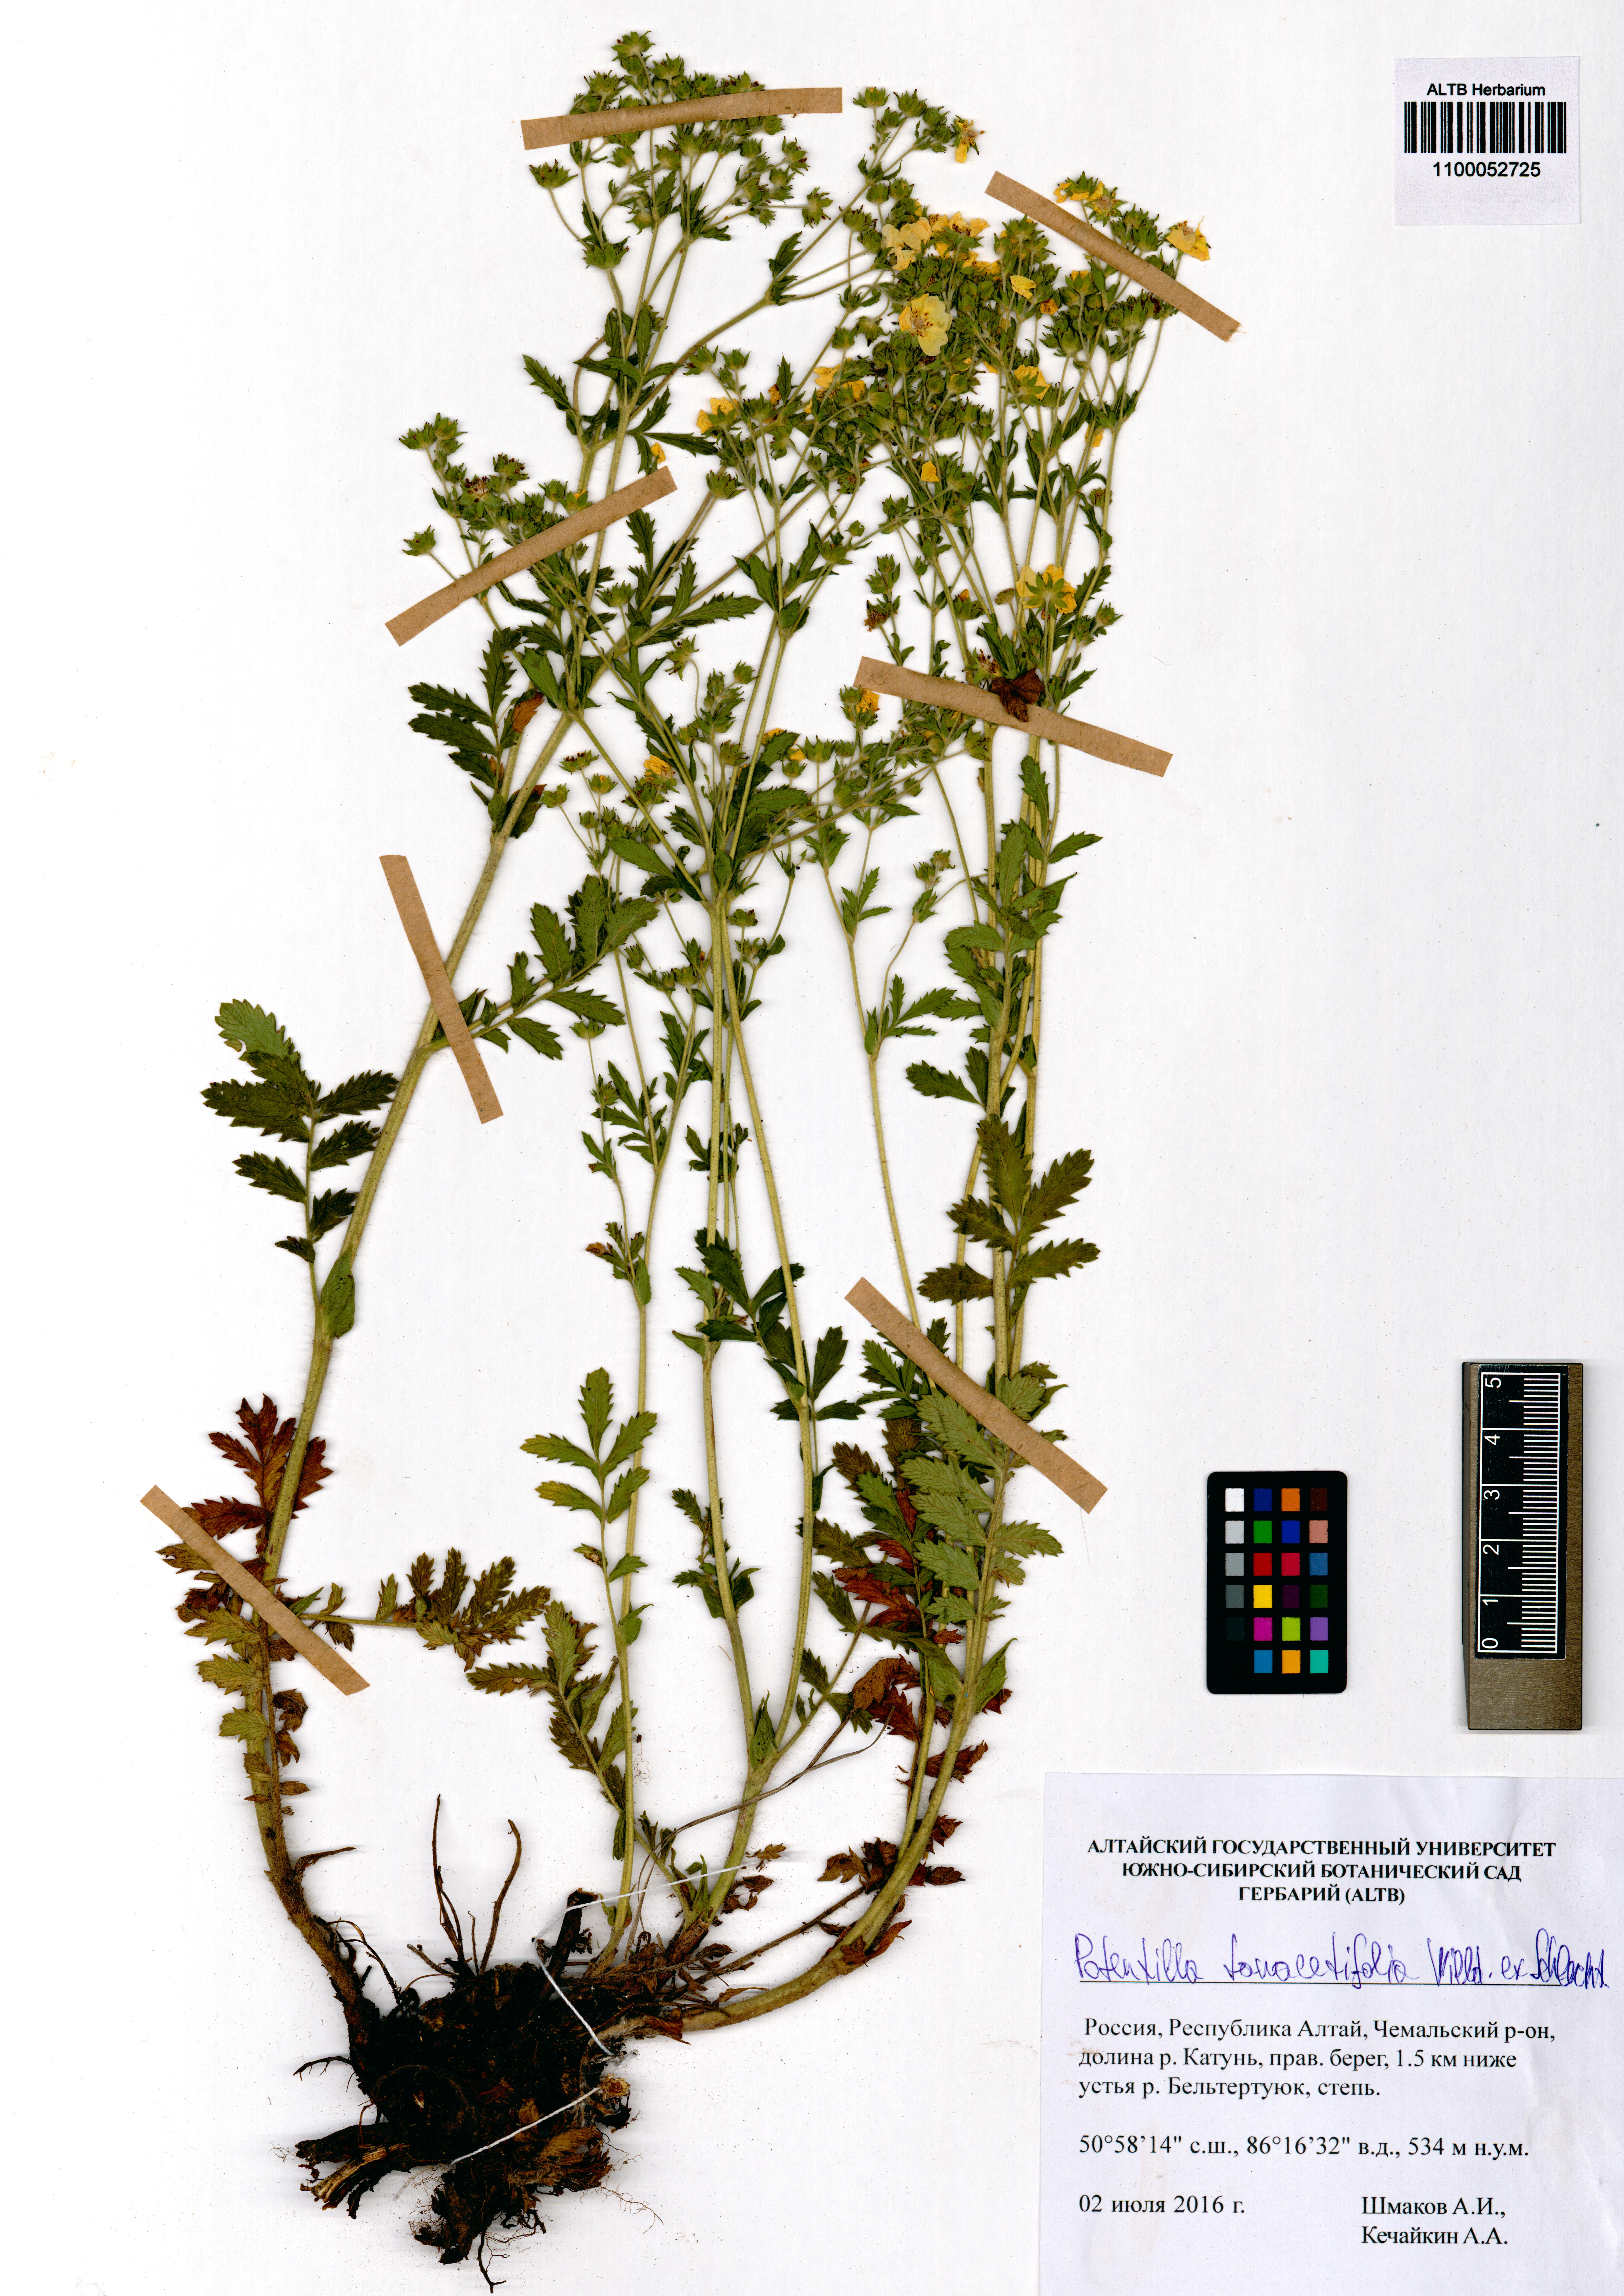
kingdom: Plantae
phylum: Tracheophyta
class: Magnoliopsida
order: Rosales
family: Rosaceae
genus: Potentilla
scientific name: Potentilla tanacetifolia
